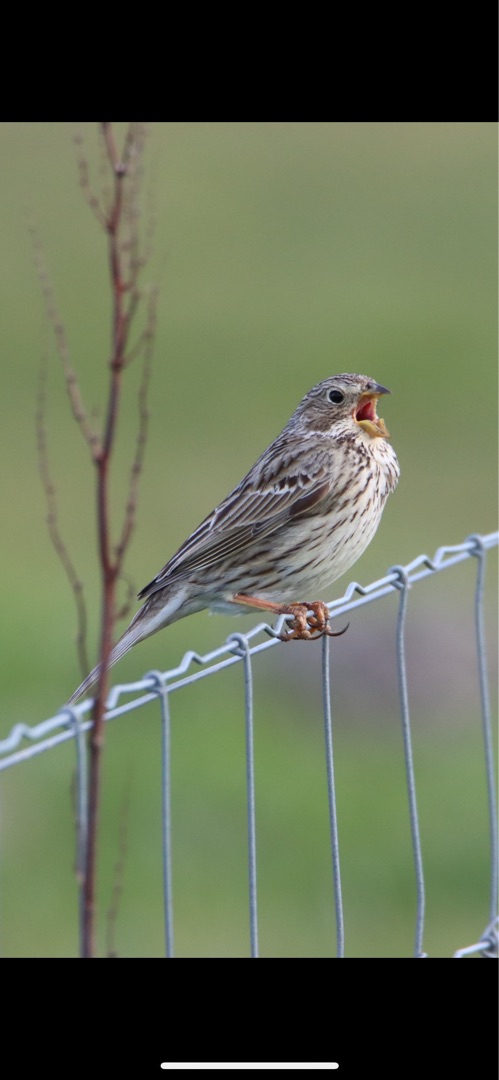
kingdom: Animalia
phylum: Chordata
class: Aves
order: Passeriformes
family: Emberizidae
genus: Emberiza
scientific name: Emberiza calandra
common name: Bomlærke
